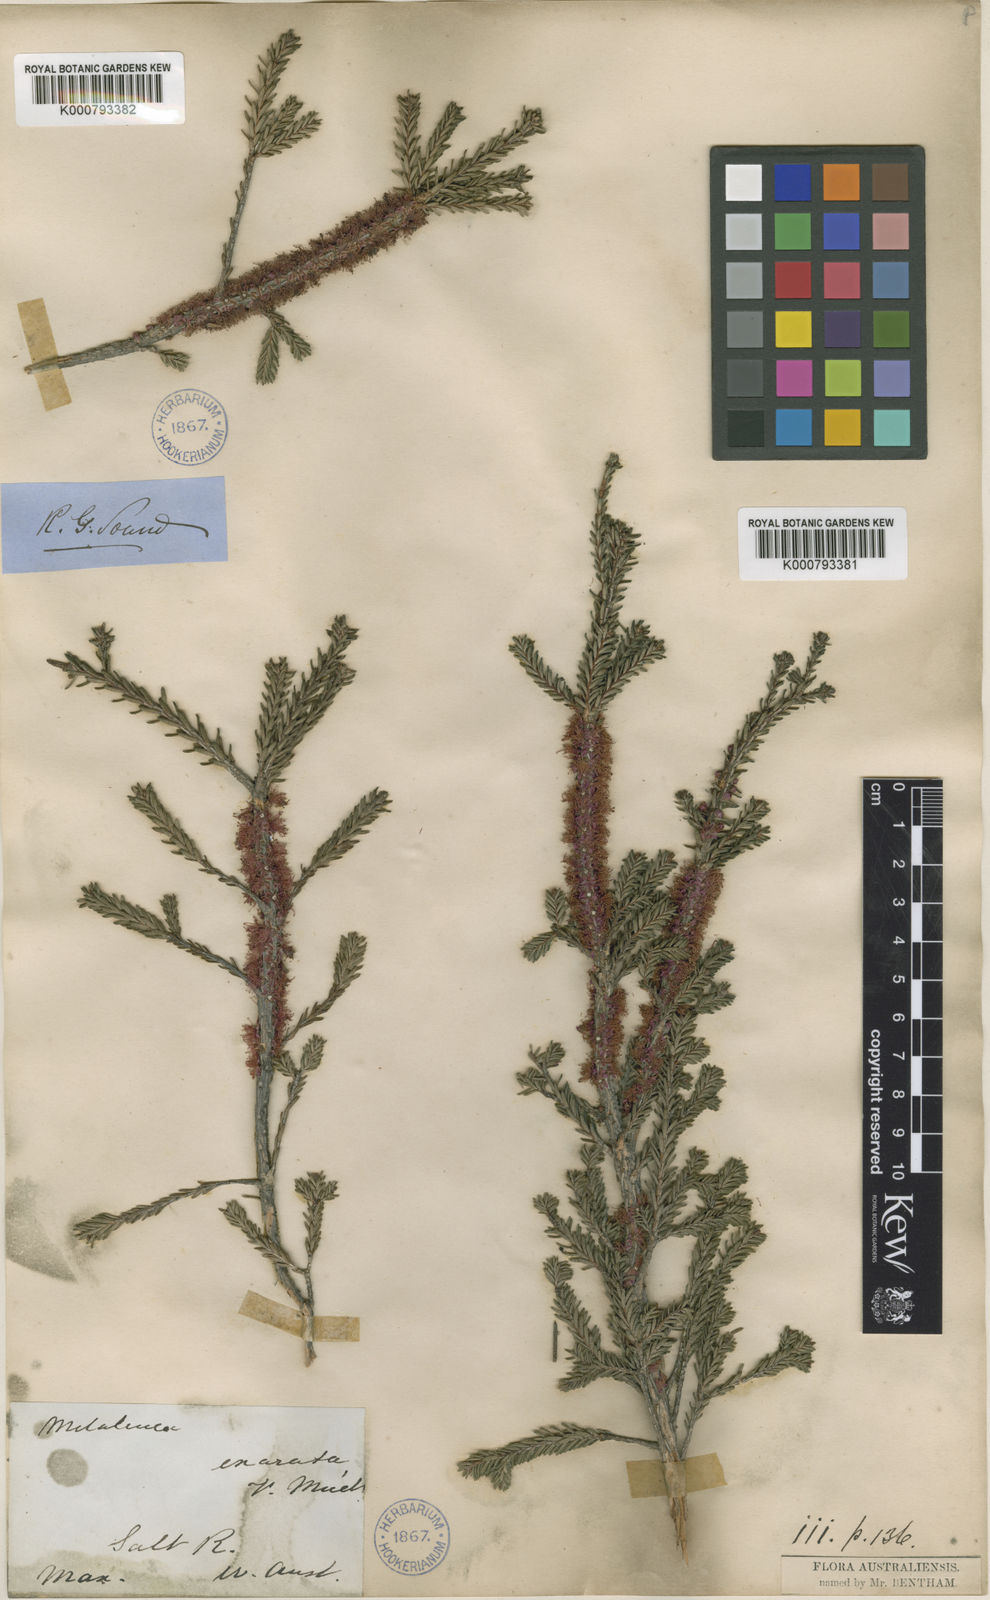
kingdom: Plantae
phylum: Tracheophyta
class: Magnoliopsida
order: Myrtales
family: Myrtaceae
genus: Melaleuca
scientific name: Melaleuca suberosa
